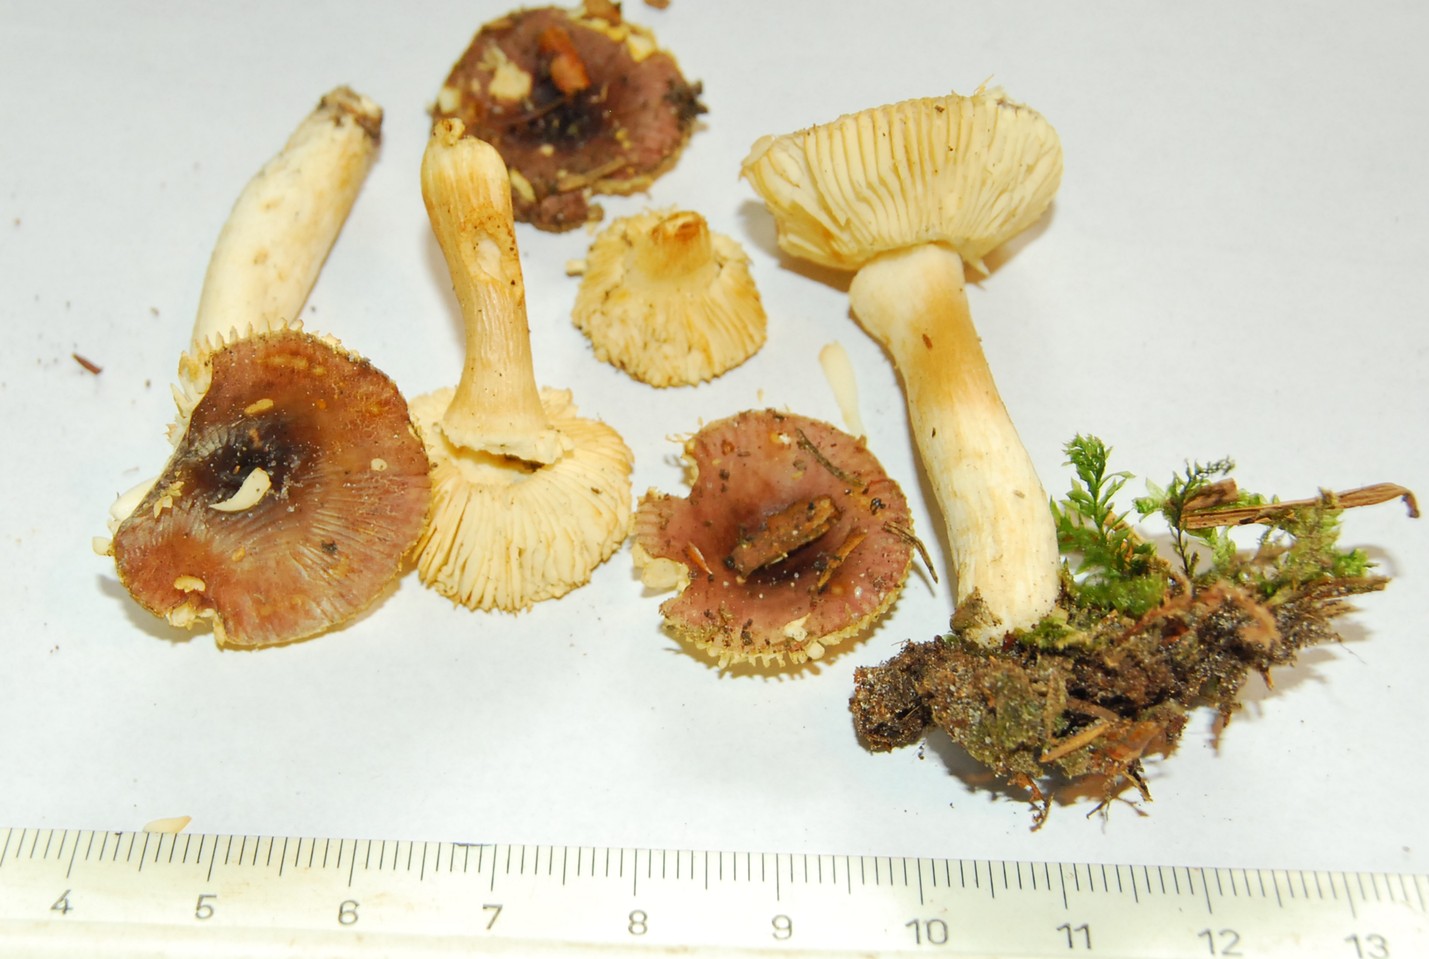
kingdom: Fungi
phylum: Basidiomycota
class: Agaricomycetes
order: Russulales
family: Russulaceae
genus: Russula
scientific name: Russula puellaris
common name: gulstokket skørhat
